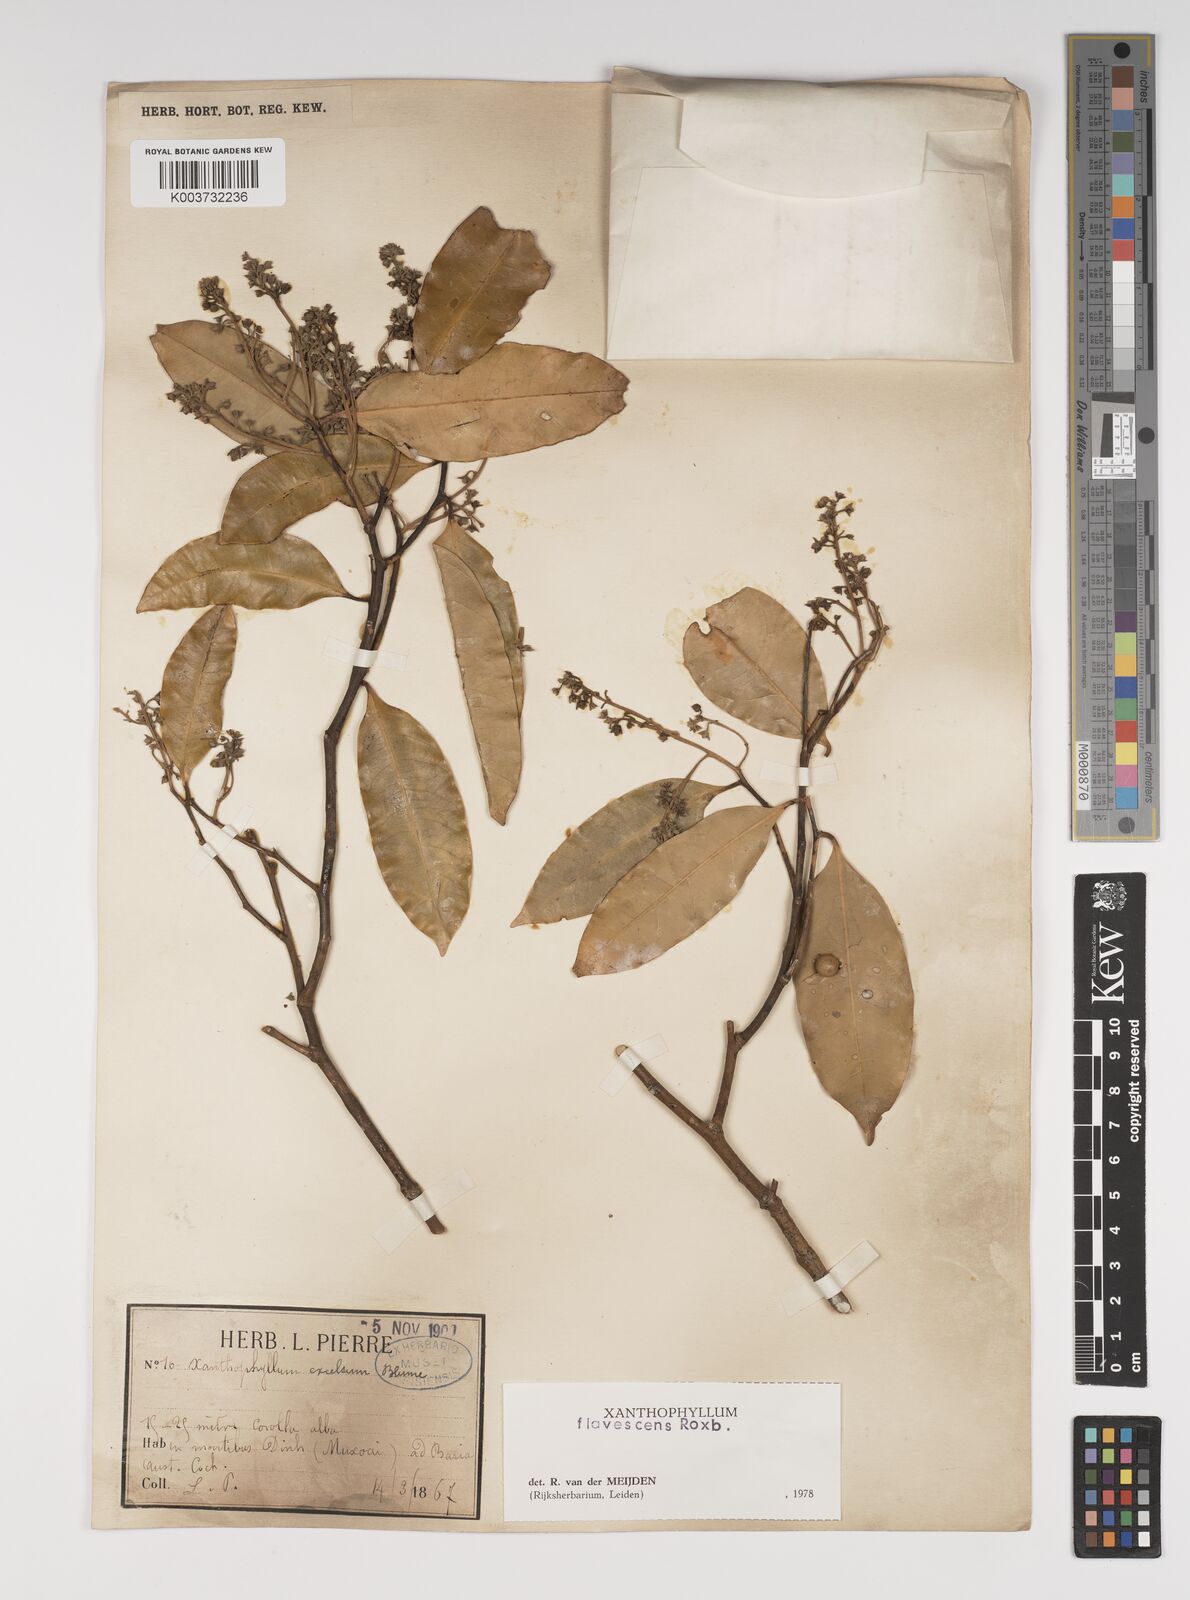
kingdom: Plantae
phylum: Tracheophyta
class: Magnoliopsida
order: Fabales
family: Polygalaceae
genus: Xanthophyllum
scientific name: Xanthophyllum flavescens
